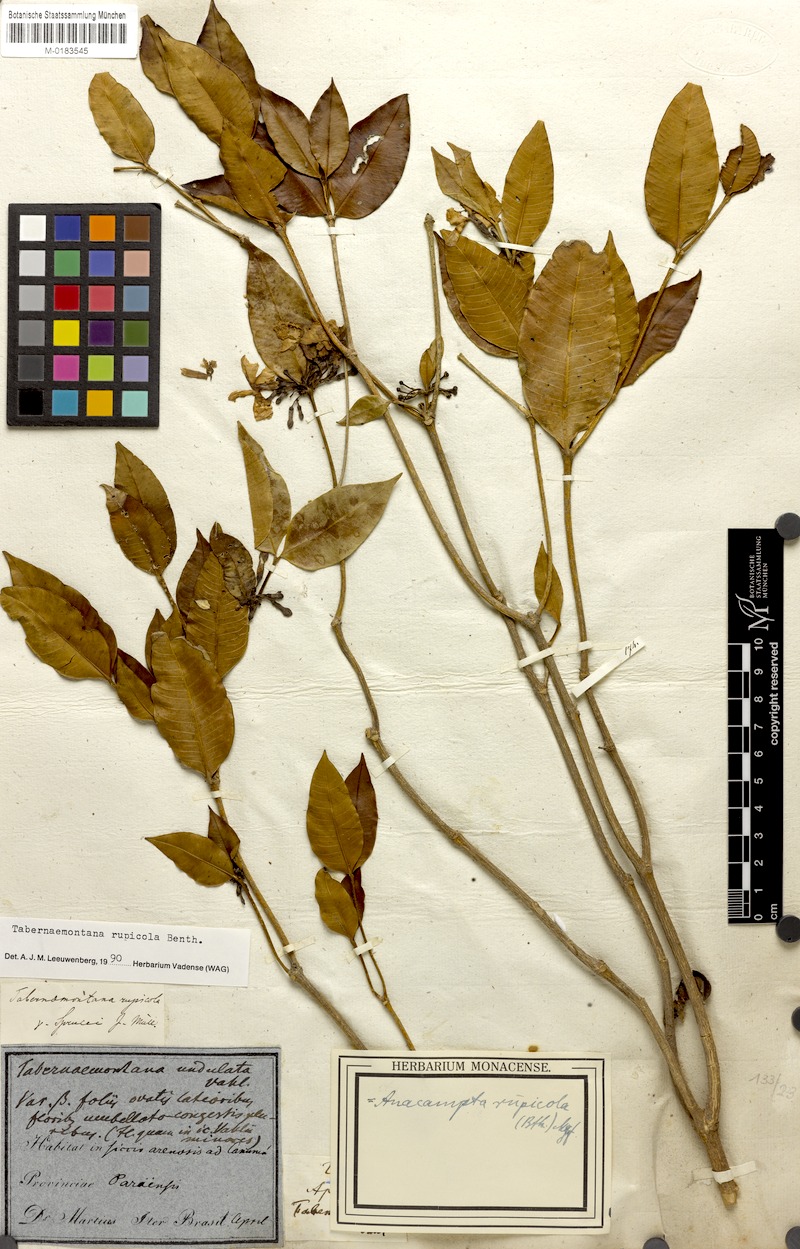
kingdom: Plantae
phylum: Tracheophyta
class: Magnoliopsida
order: Gentianales
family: Apocynaceae
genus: Tabernaemontana
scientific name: Tabernaemontana rupicola
